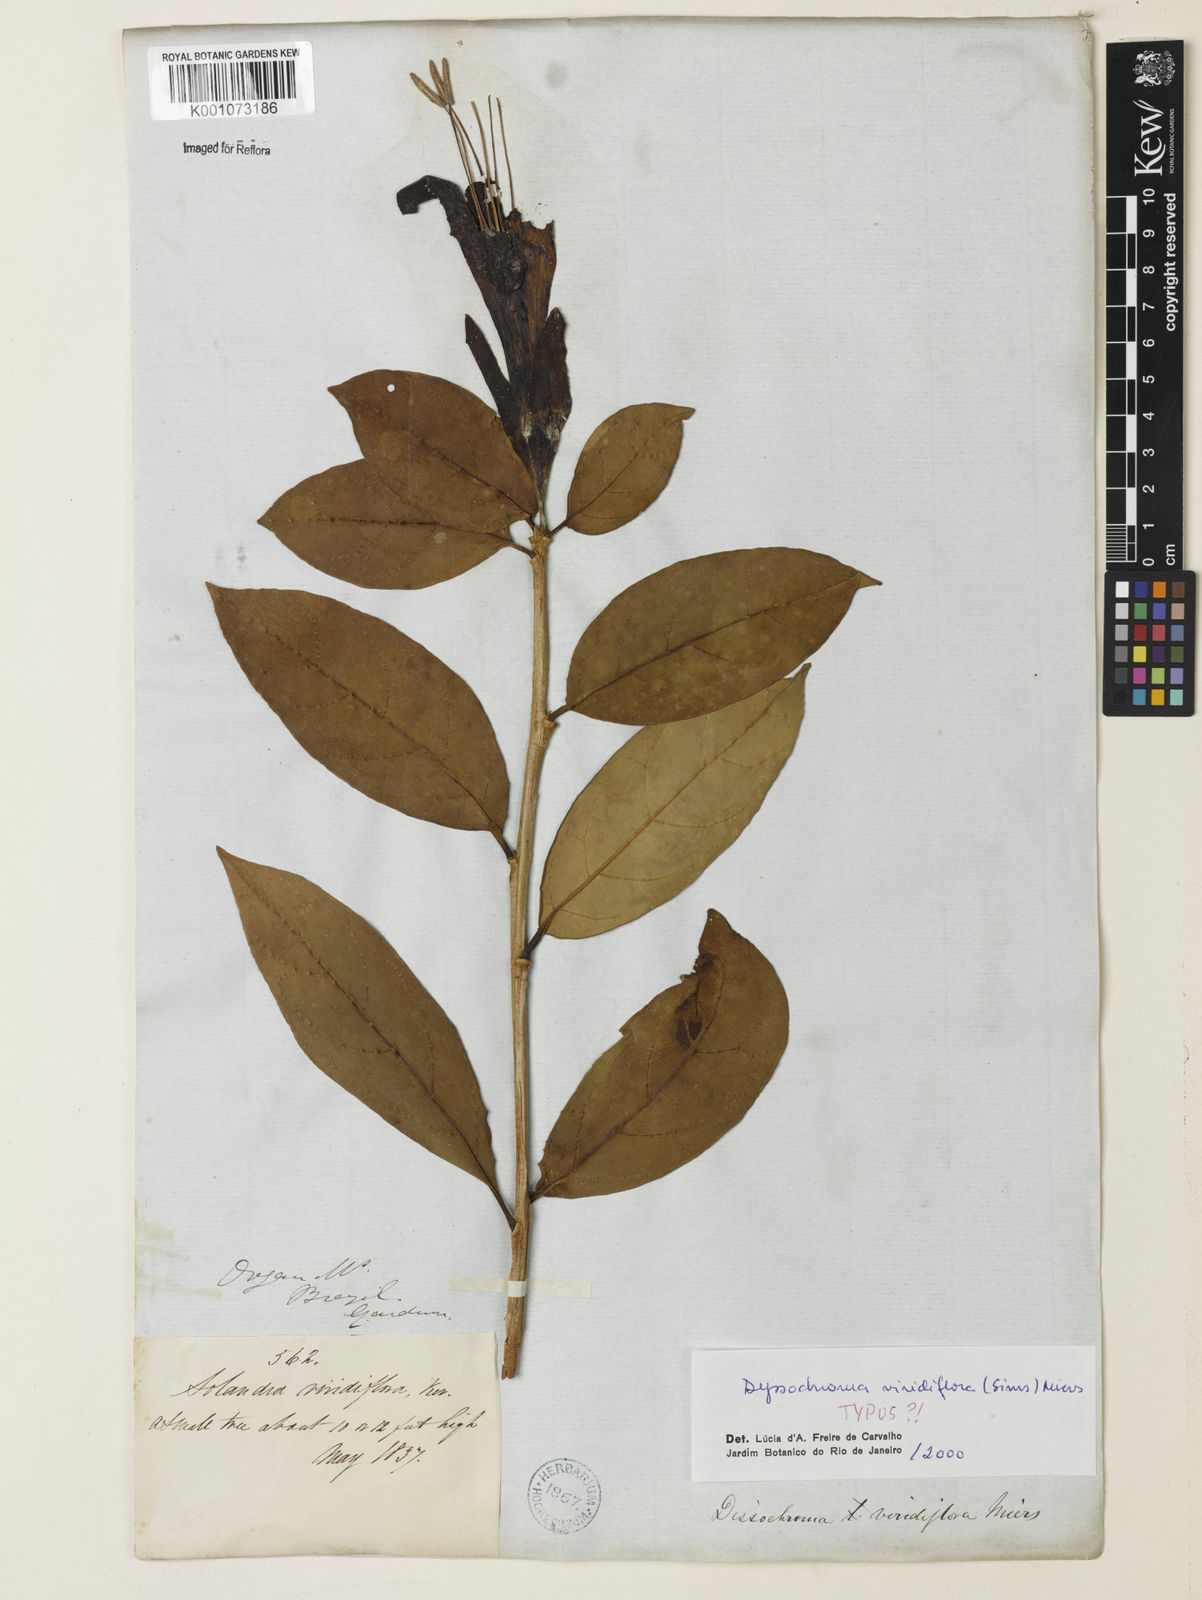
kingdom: Plantae
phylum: Tracheophyta
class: Magnoliopsida
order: Solanales
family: Solanaceae
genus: Dyssochroma
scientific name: Dyssochroma viridiflorum
